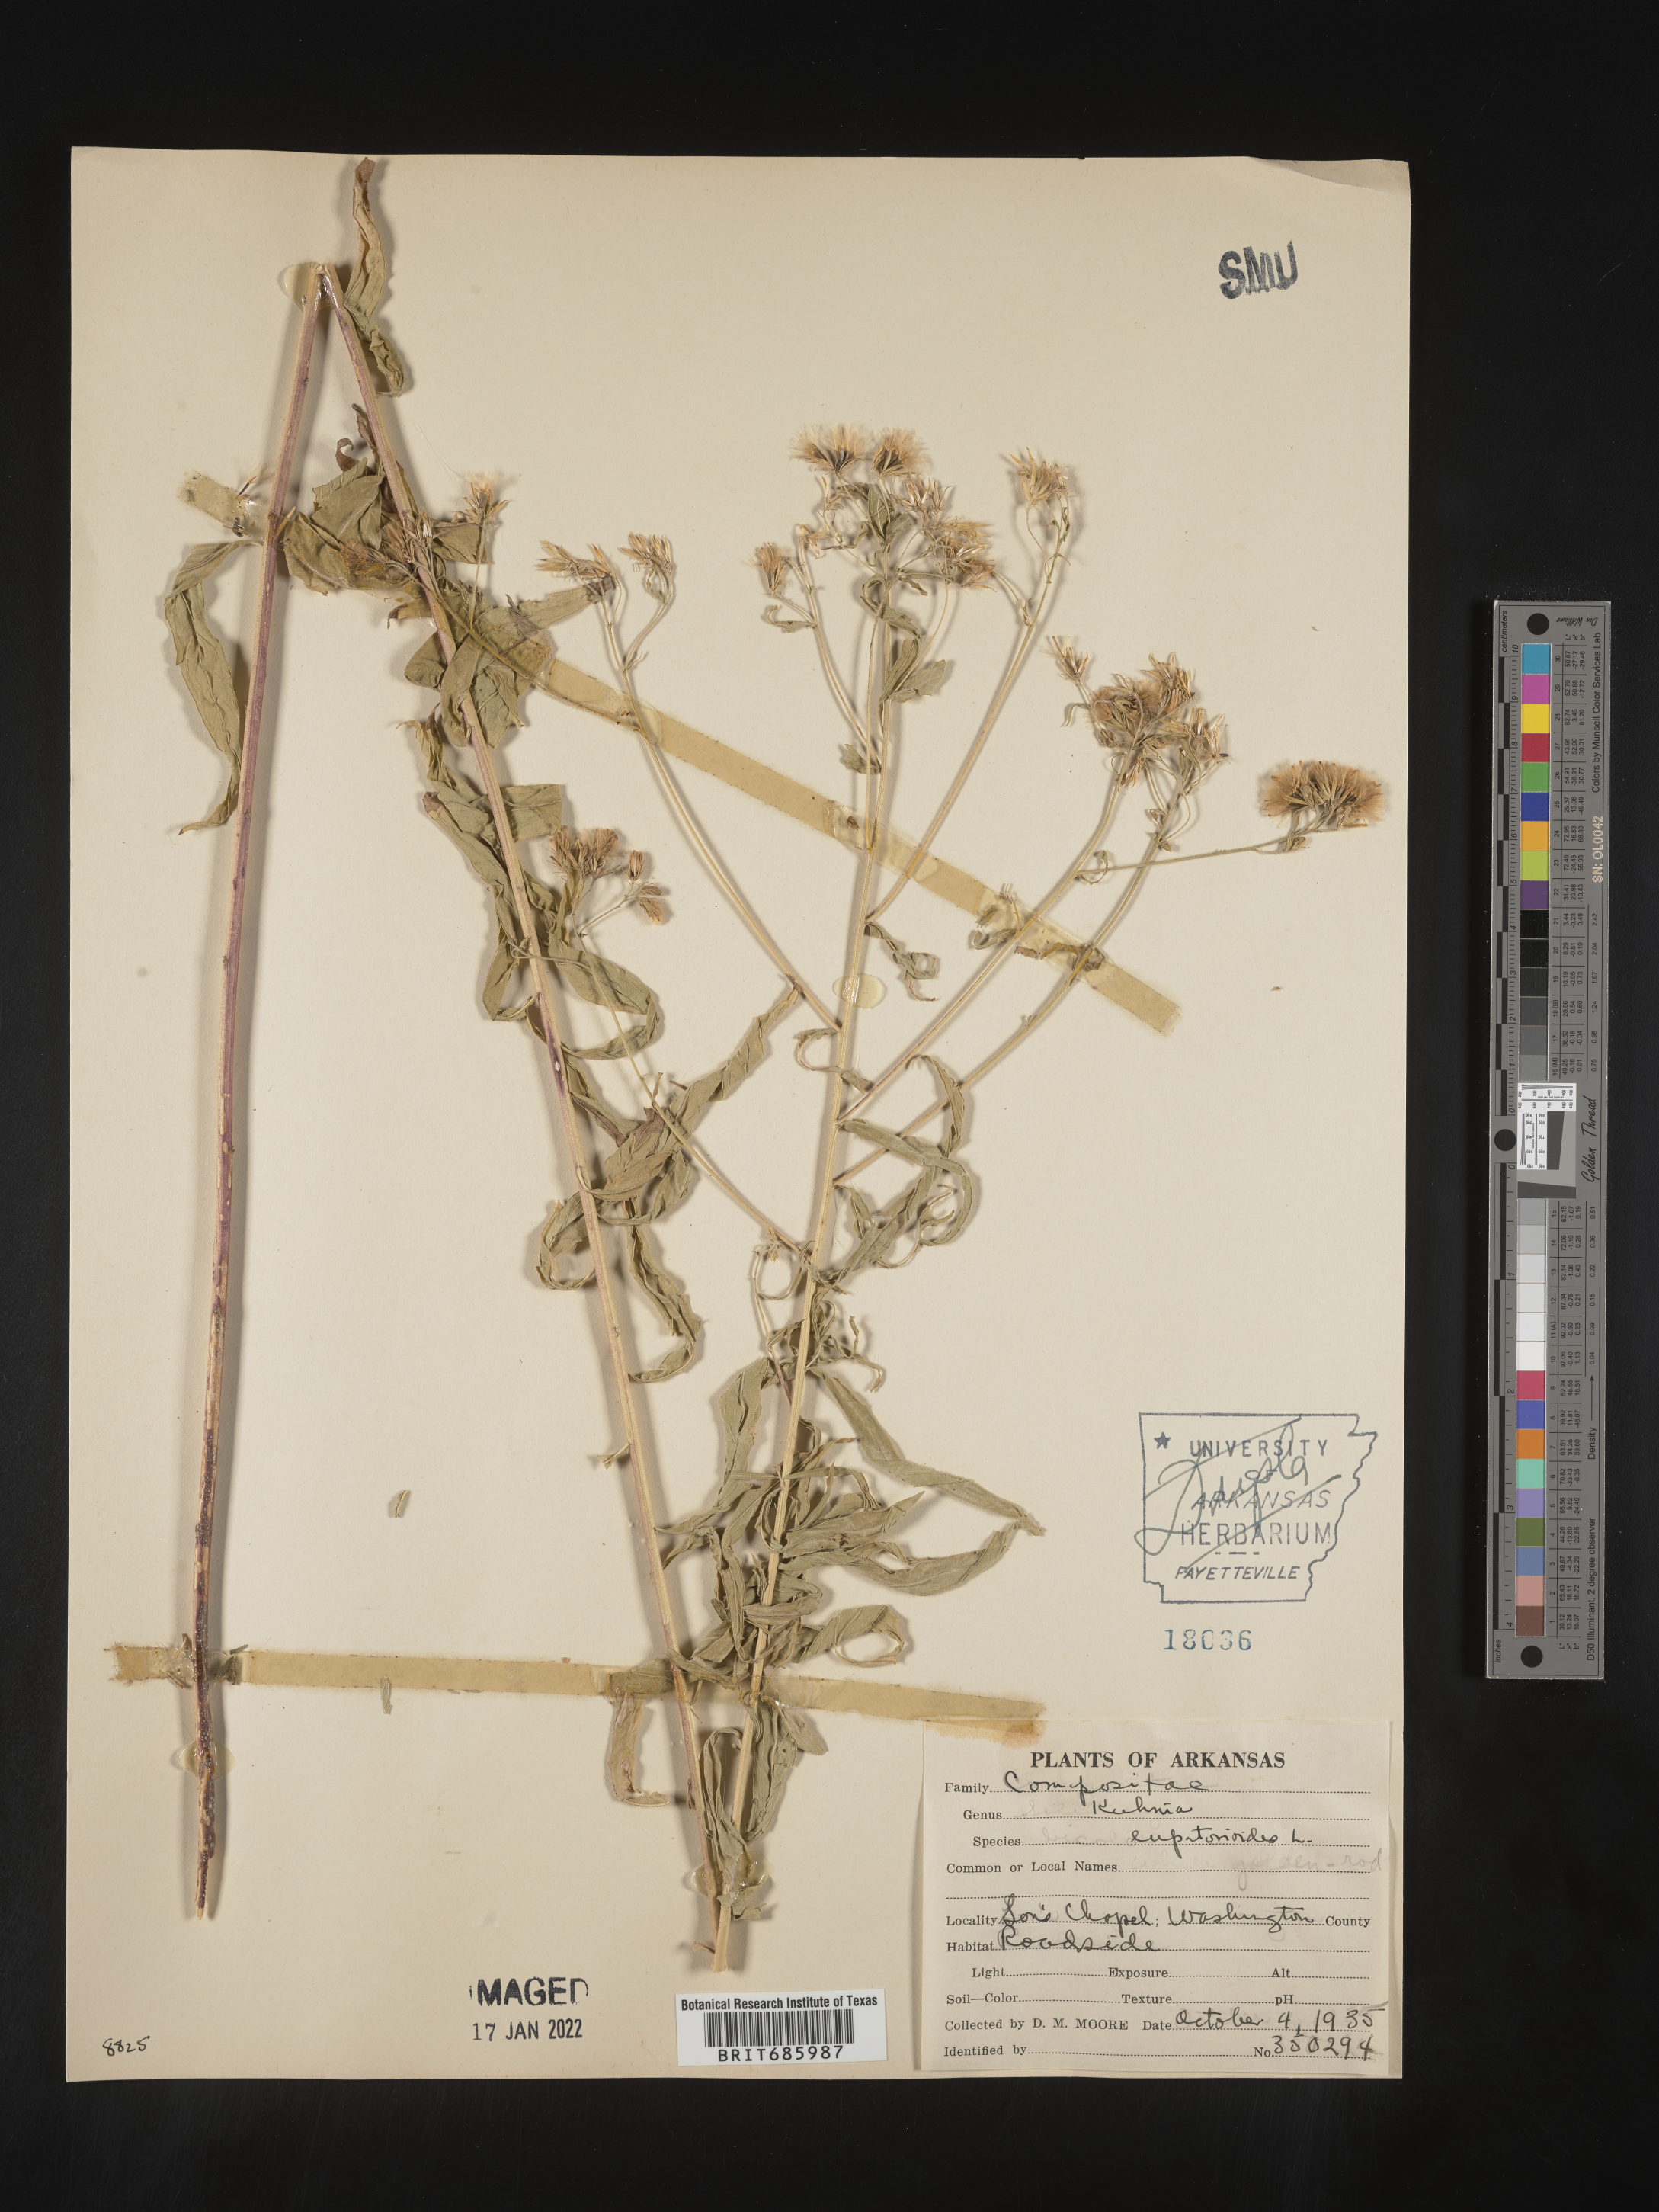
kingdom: Plantae
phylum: Tracheophyta
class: Magnoliopsida
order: Asterales
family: Asteraceae
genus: Brickellia
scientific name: Brickellia eupatorioides
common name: False boneset
